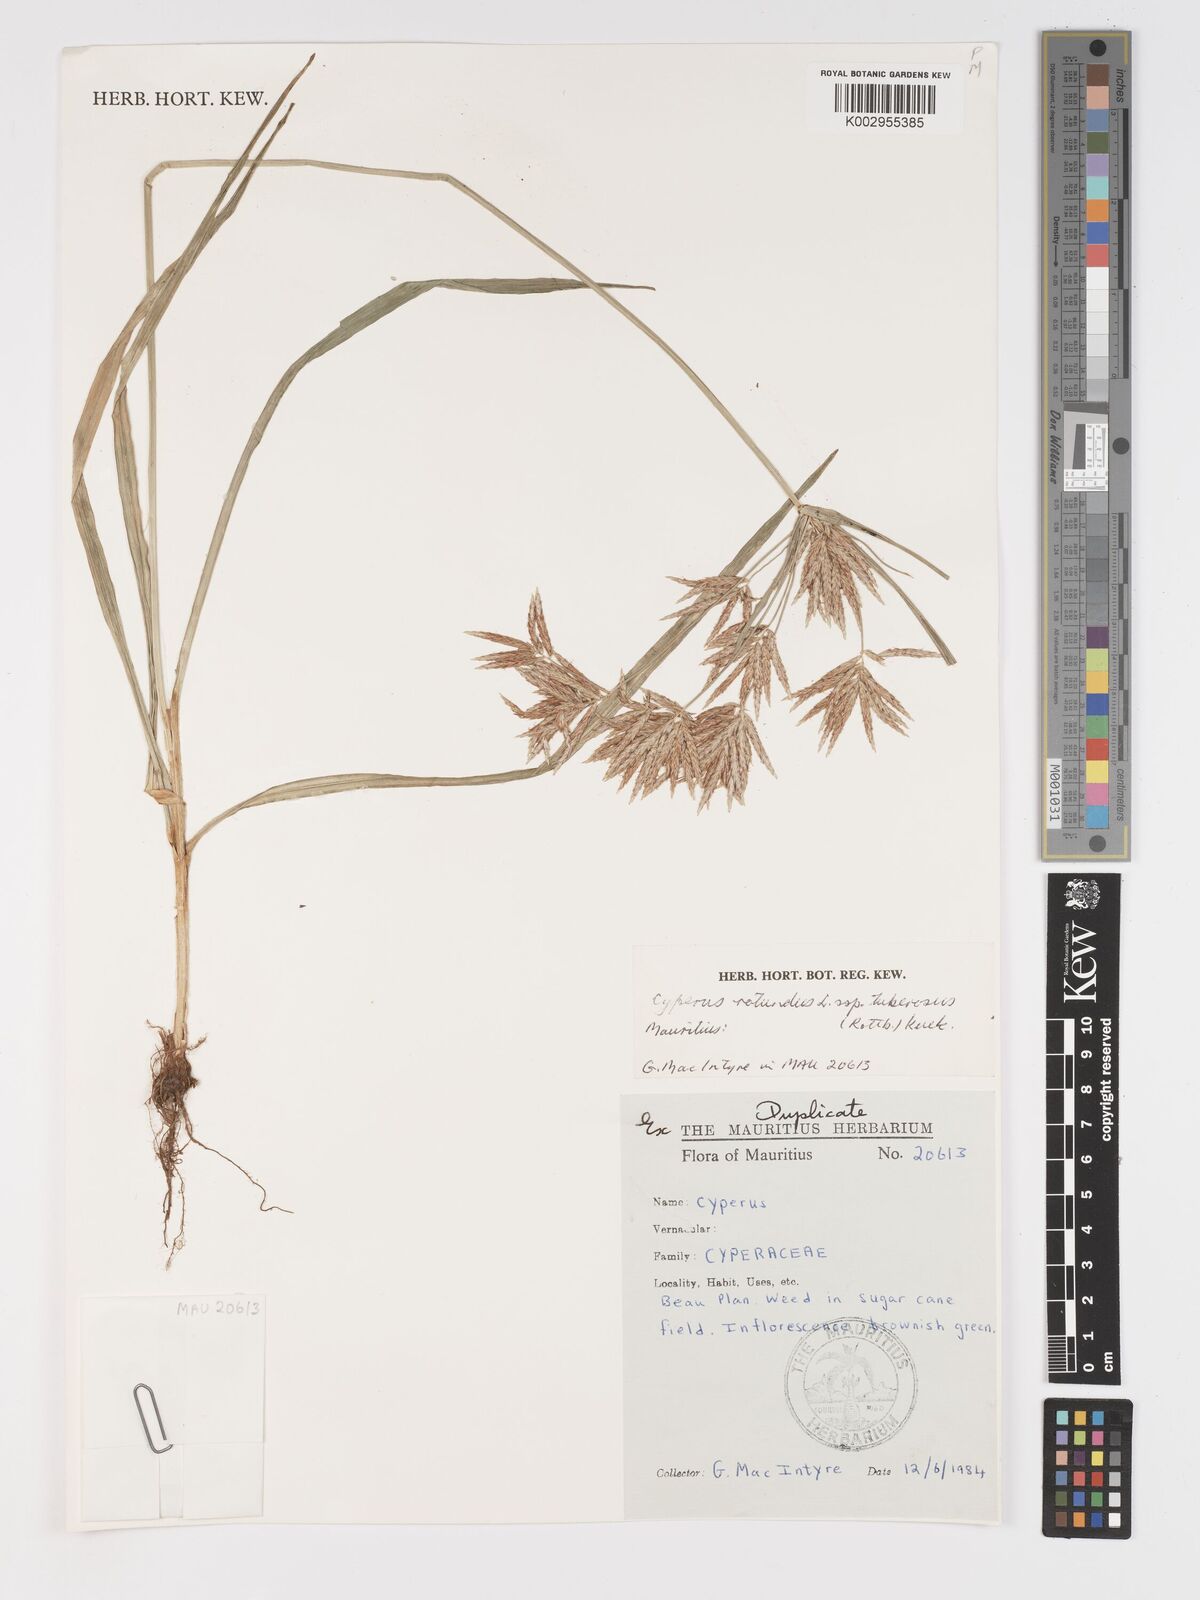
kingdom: Plantae
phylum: Tracheophyta
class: Liliopsida
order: Poales
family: Cyperaceae
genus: Cyperus
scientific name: Cyperus tuberosus
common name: Nut grass
